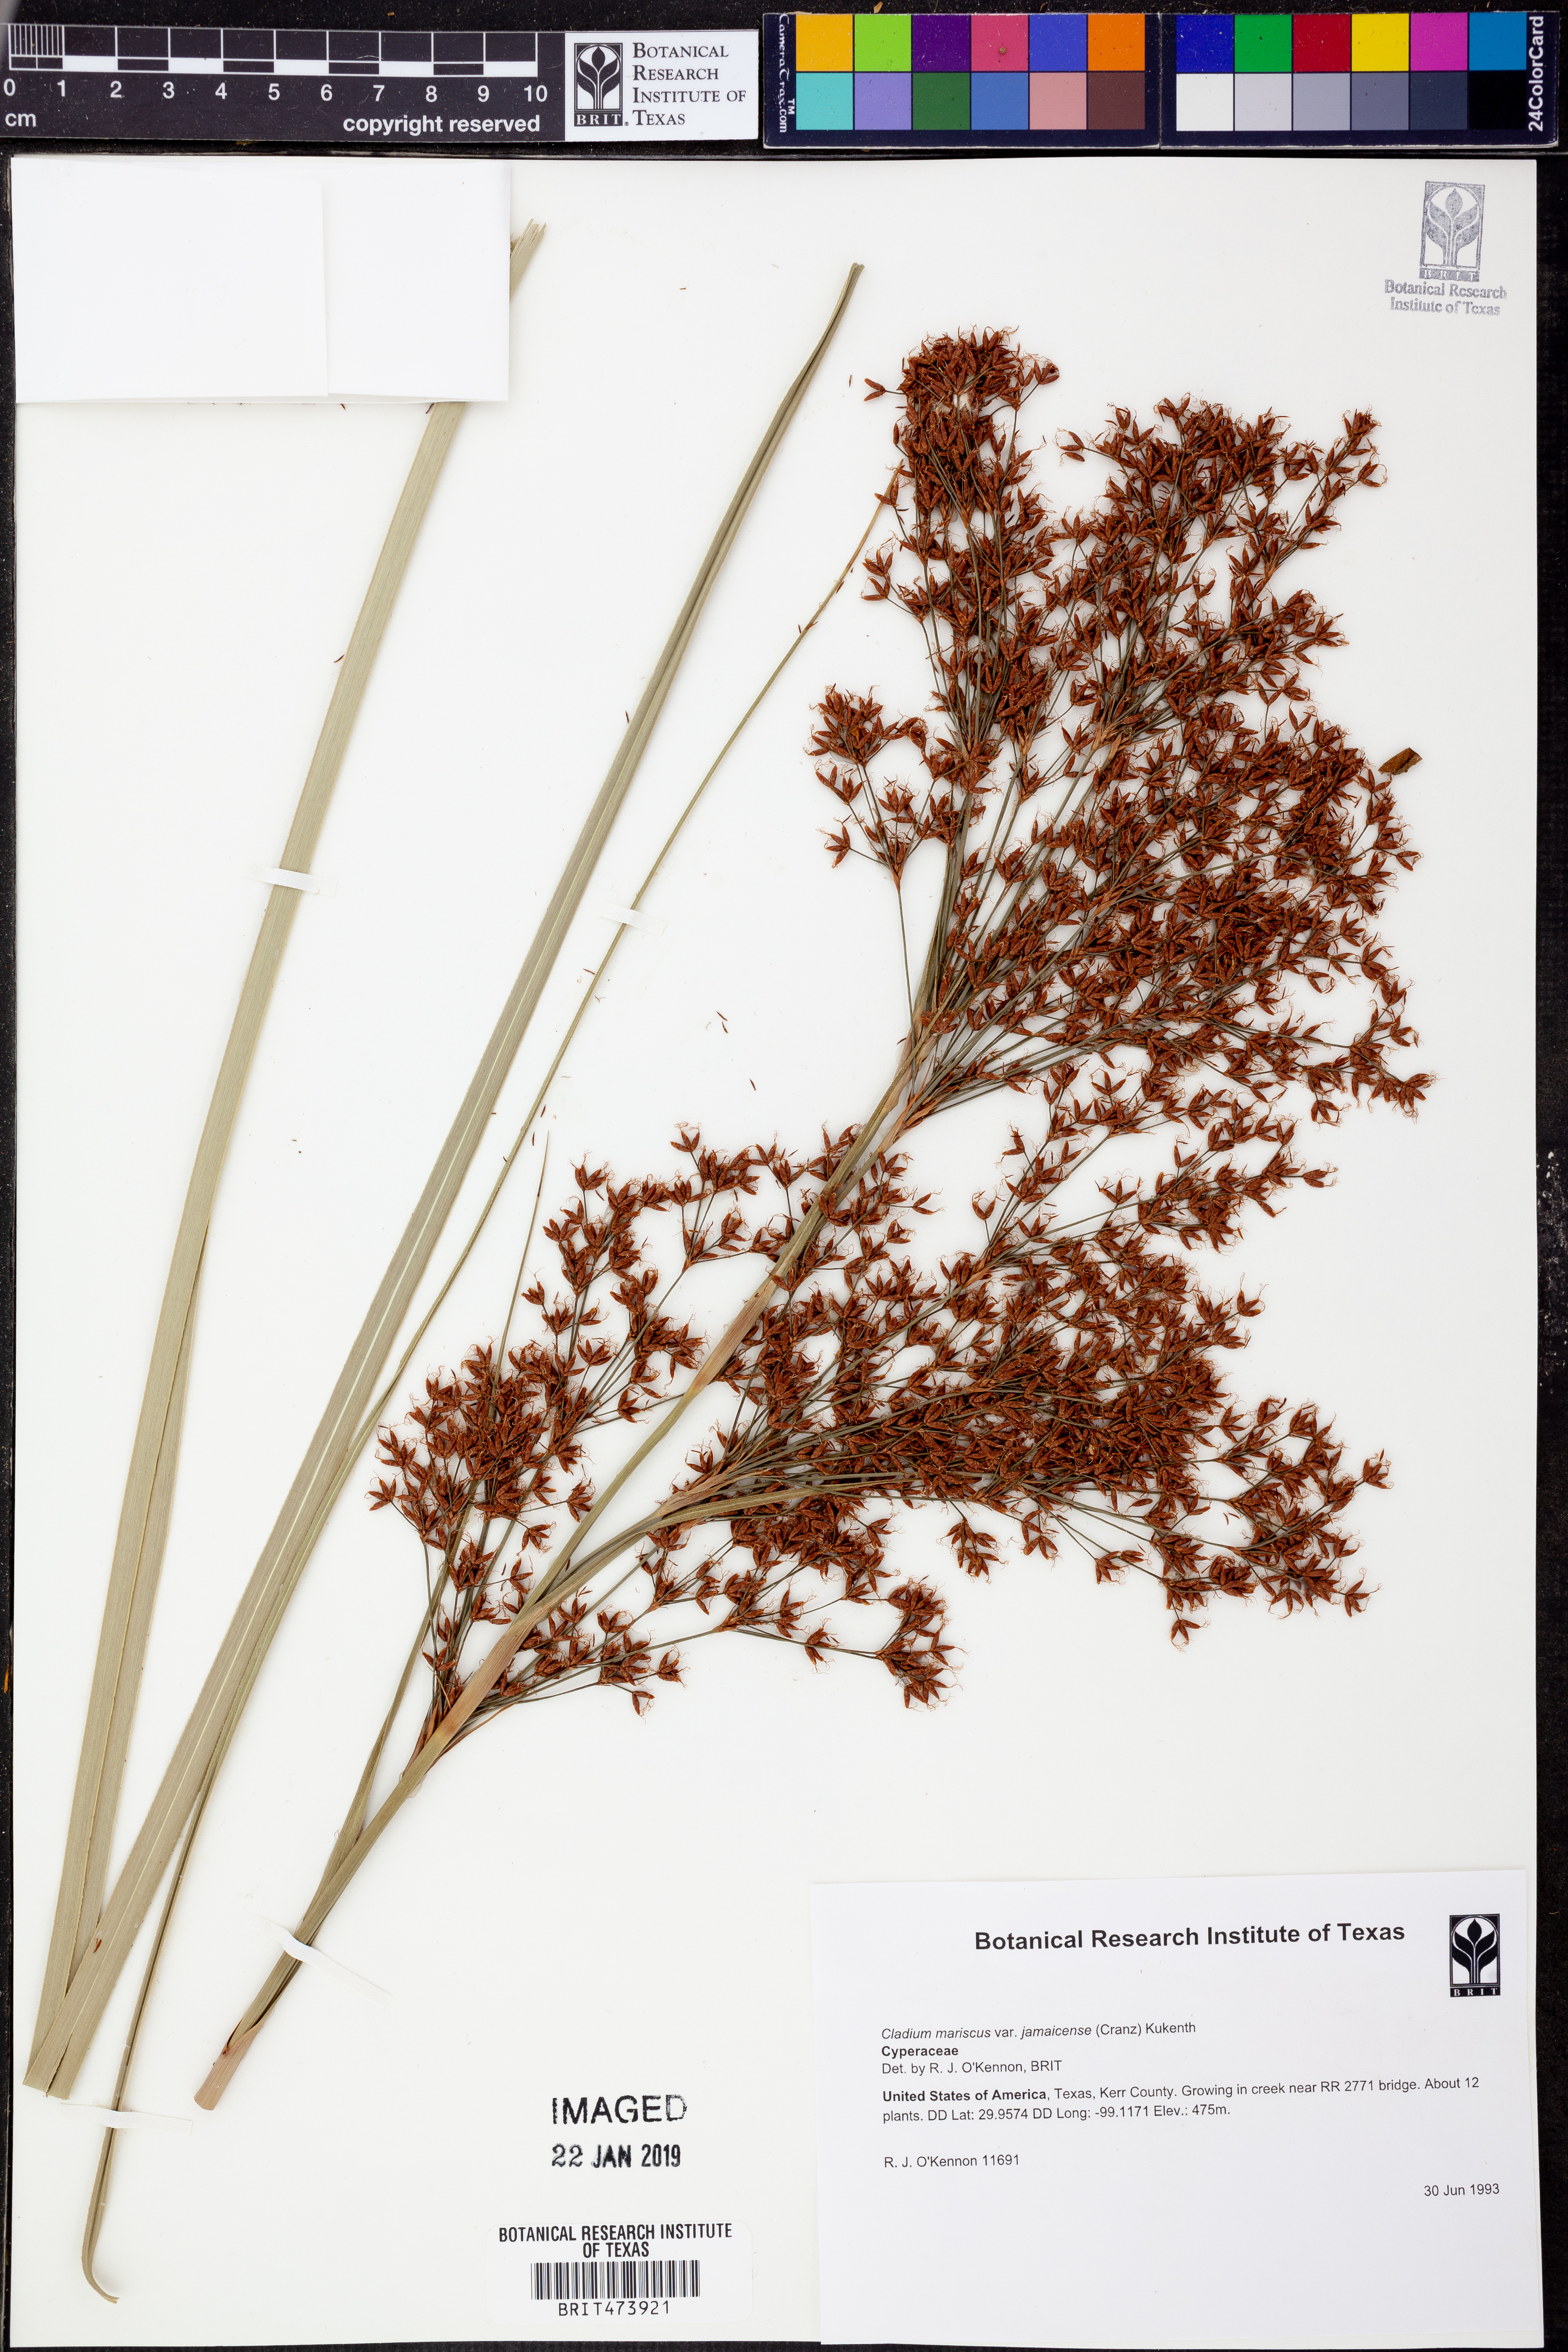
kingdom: Plantae
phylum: Tracheophyta
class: Liliopsida
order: Poales
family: Cyperaceae
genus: Cladium
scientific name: Cladium mariscus
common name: Great fen-sedge
